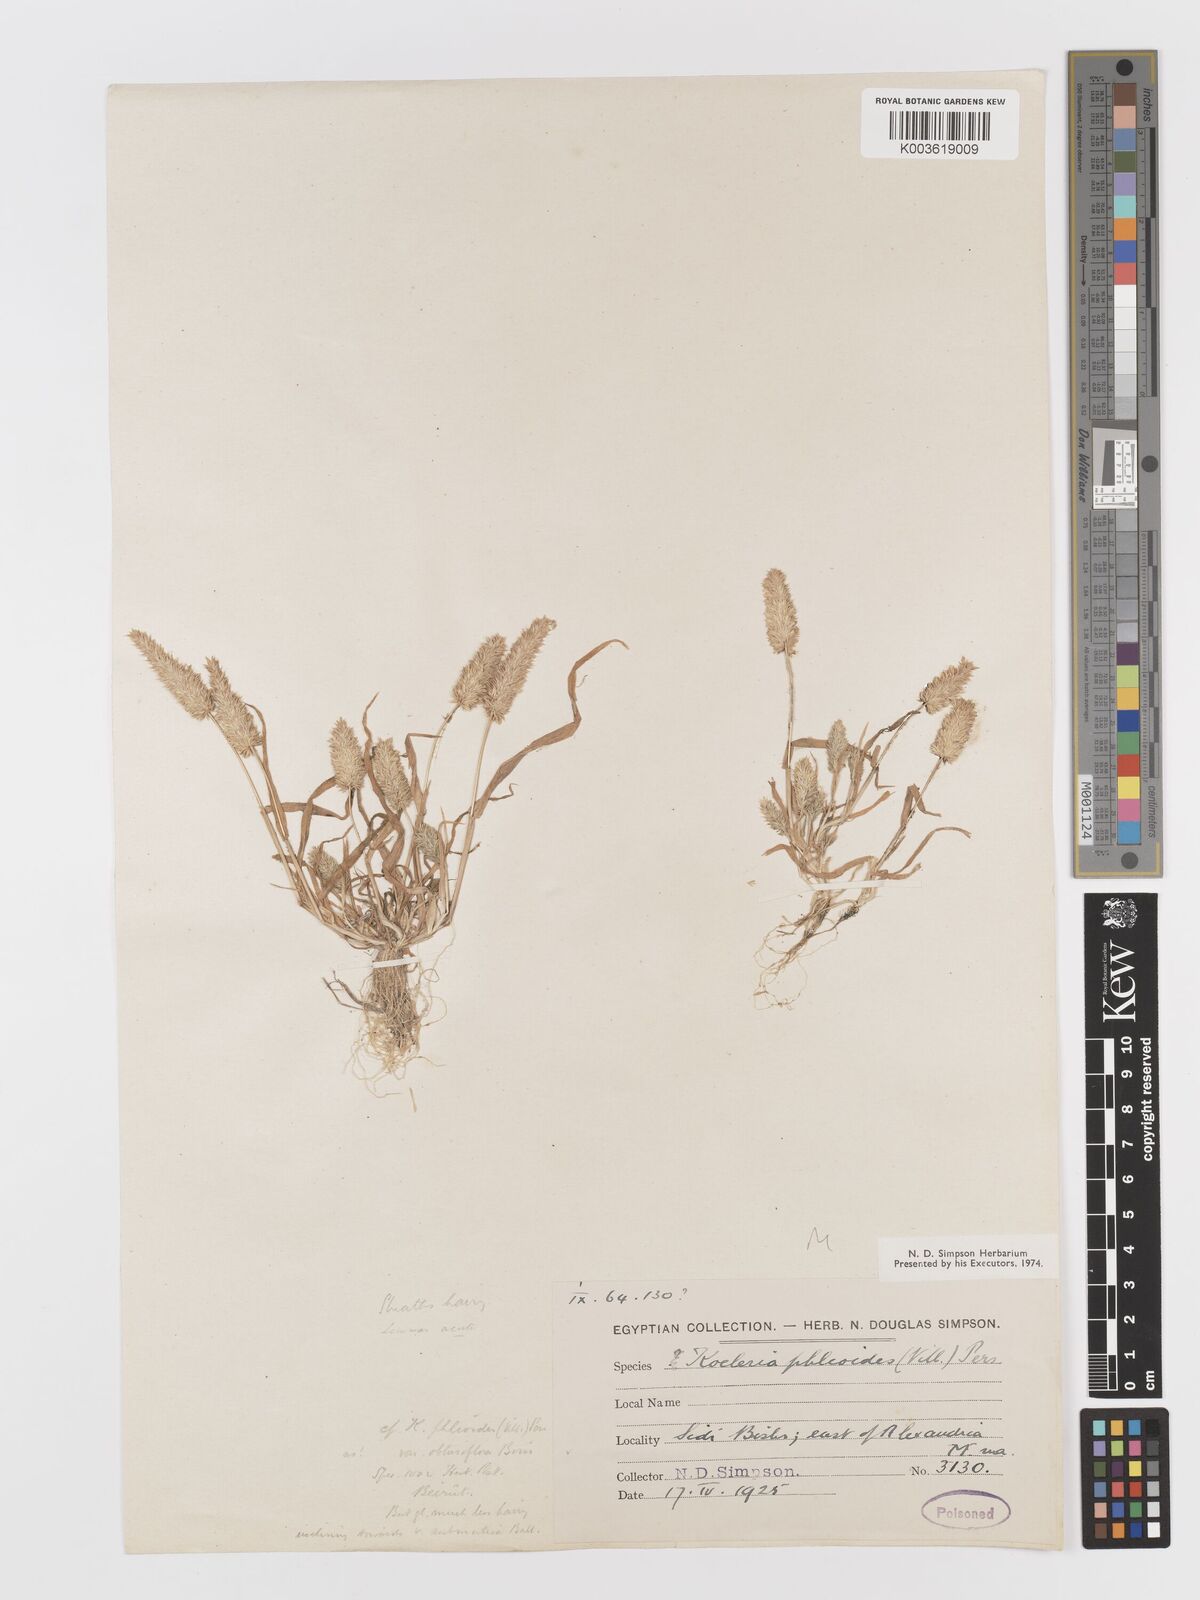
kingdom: Plantae
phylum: Tracheophyta
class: Liliopsida
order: Poales
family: Poaceae
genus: Rostraria
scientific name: Rostraria cristata
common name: Mediterranean hair-grass
